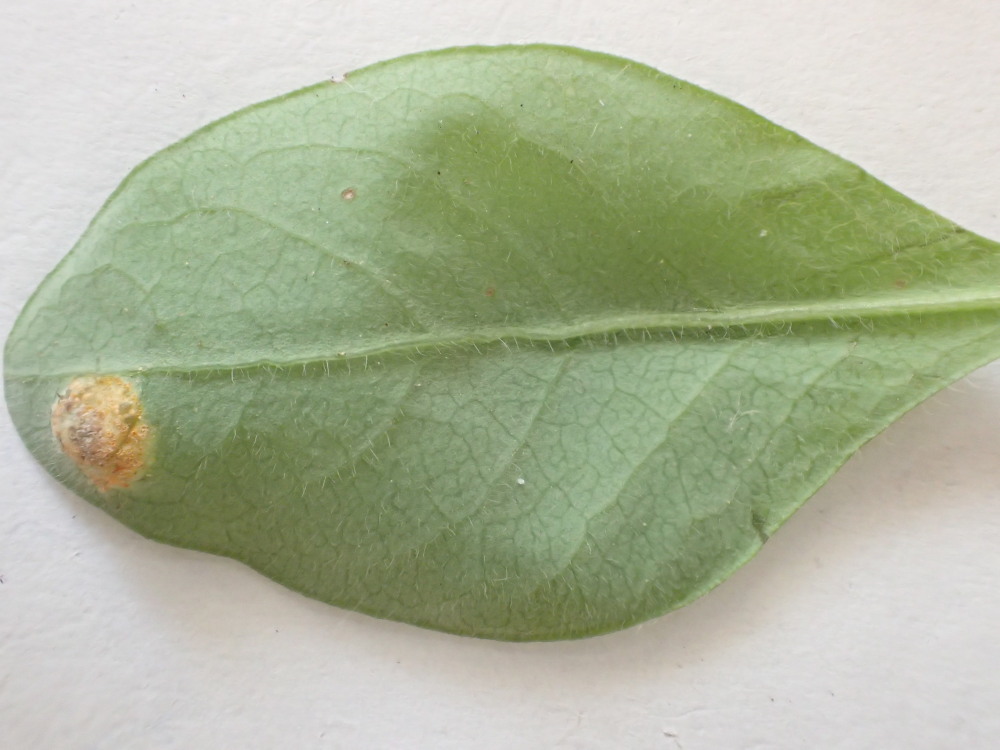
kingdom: Fungi
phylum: Basidiomycota
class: Pucciniomycetes
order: Pucciniales
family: Pucciniaceae
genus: Puccinia
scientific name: Puccinia festucae
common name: gedeblad-tvecellerust
